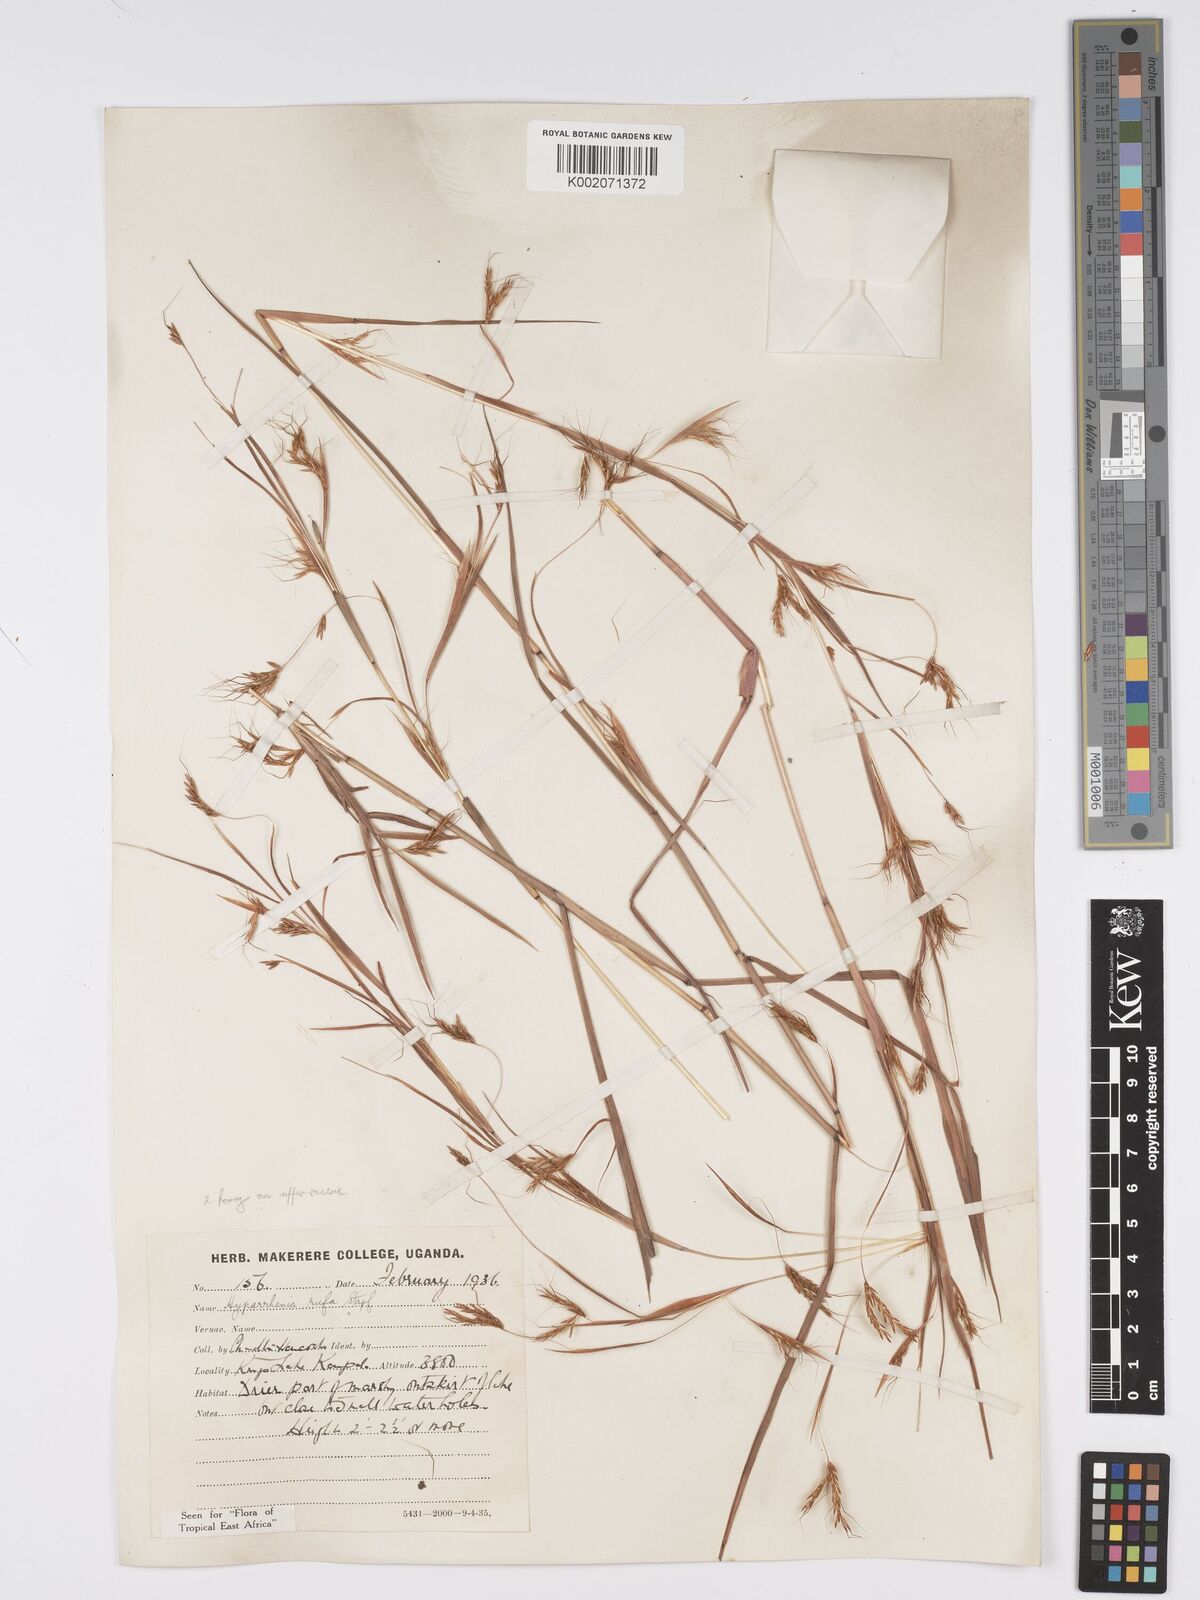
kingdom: Plantae
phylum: Tracheophyta
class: Liliopsida
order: Poales
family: Poaceae
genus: Hyparrhenia
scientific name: Hyparrhenia rufa
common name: Jaraguagrass
